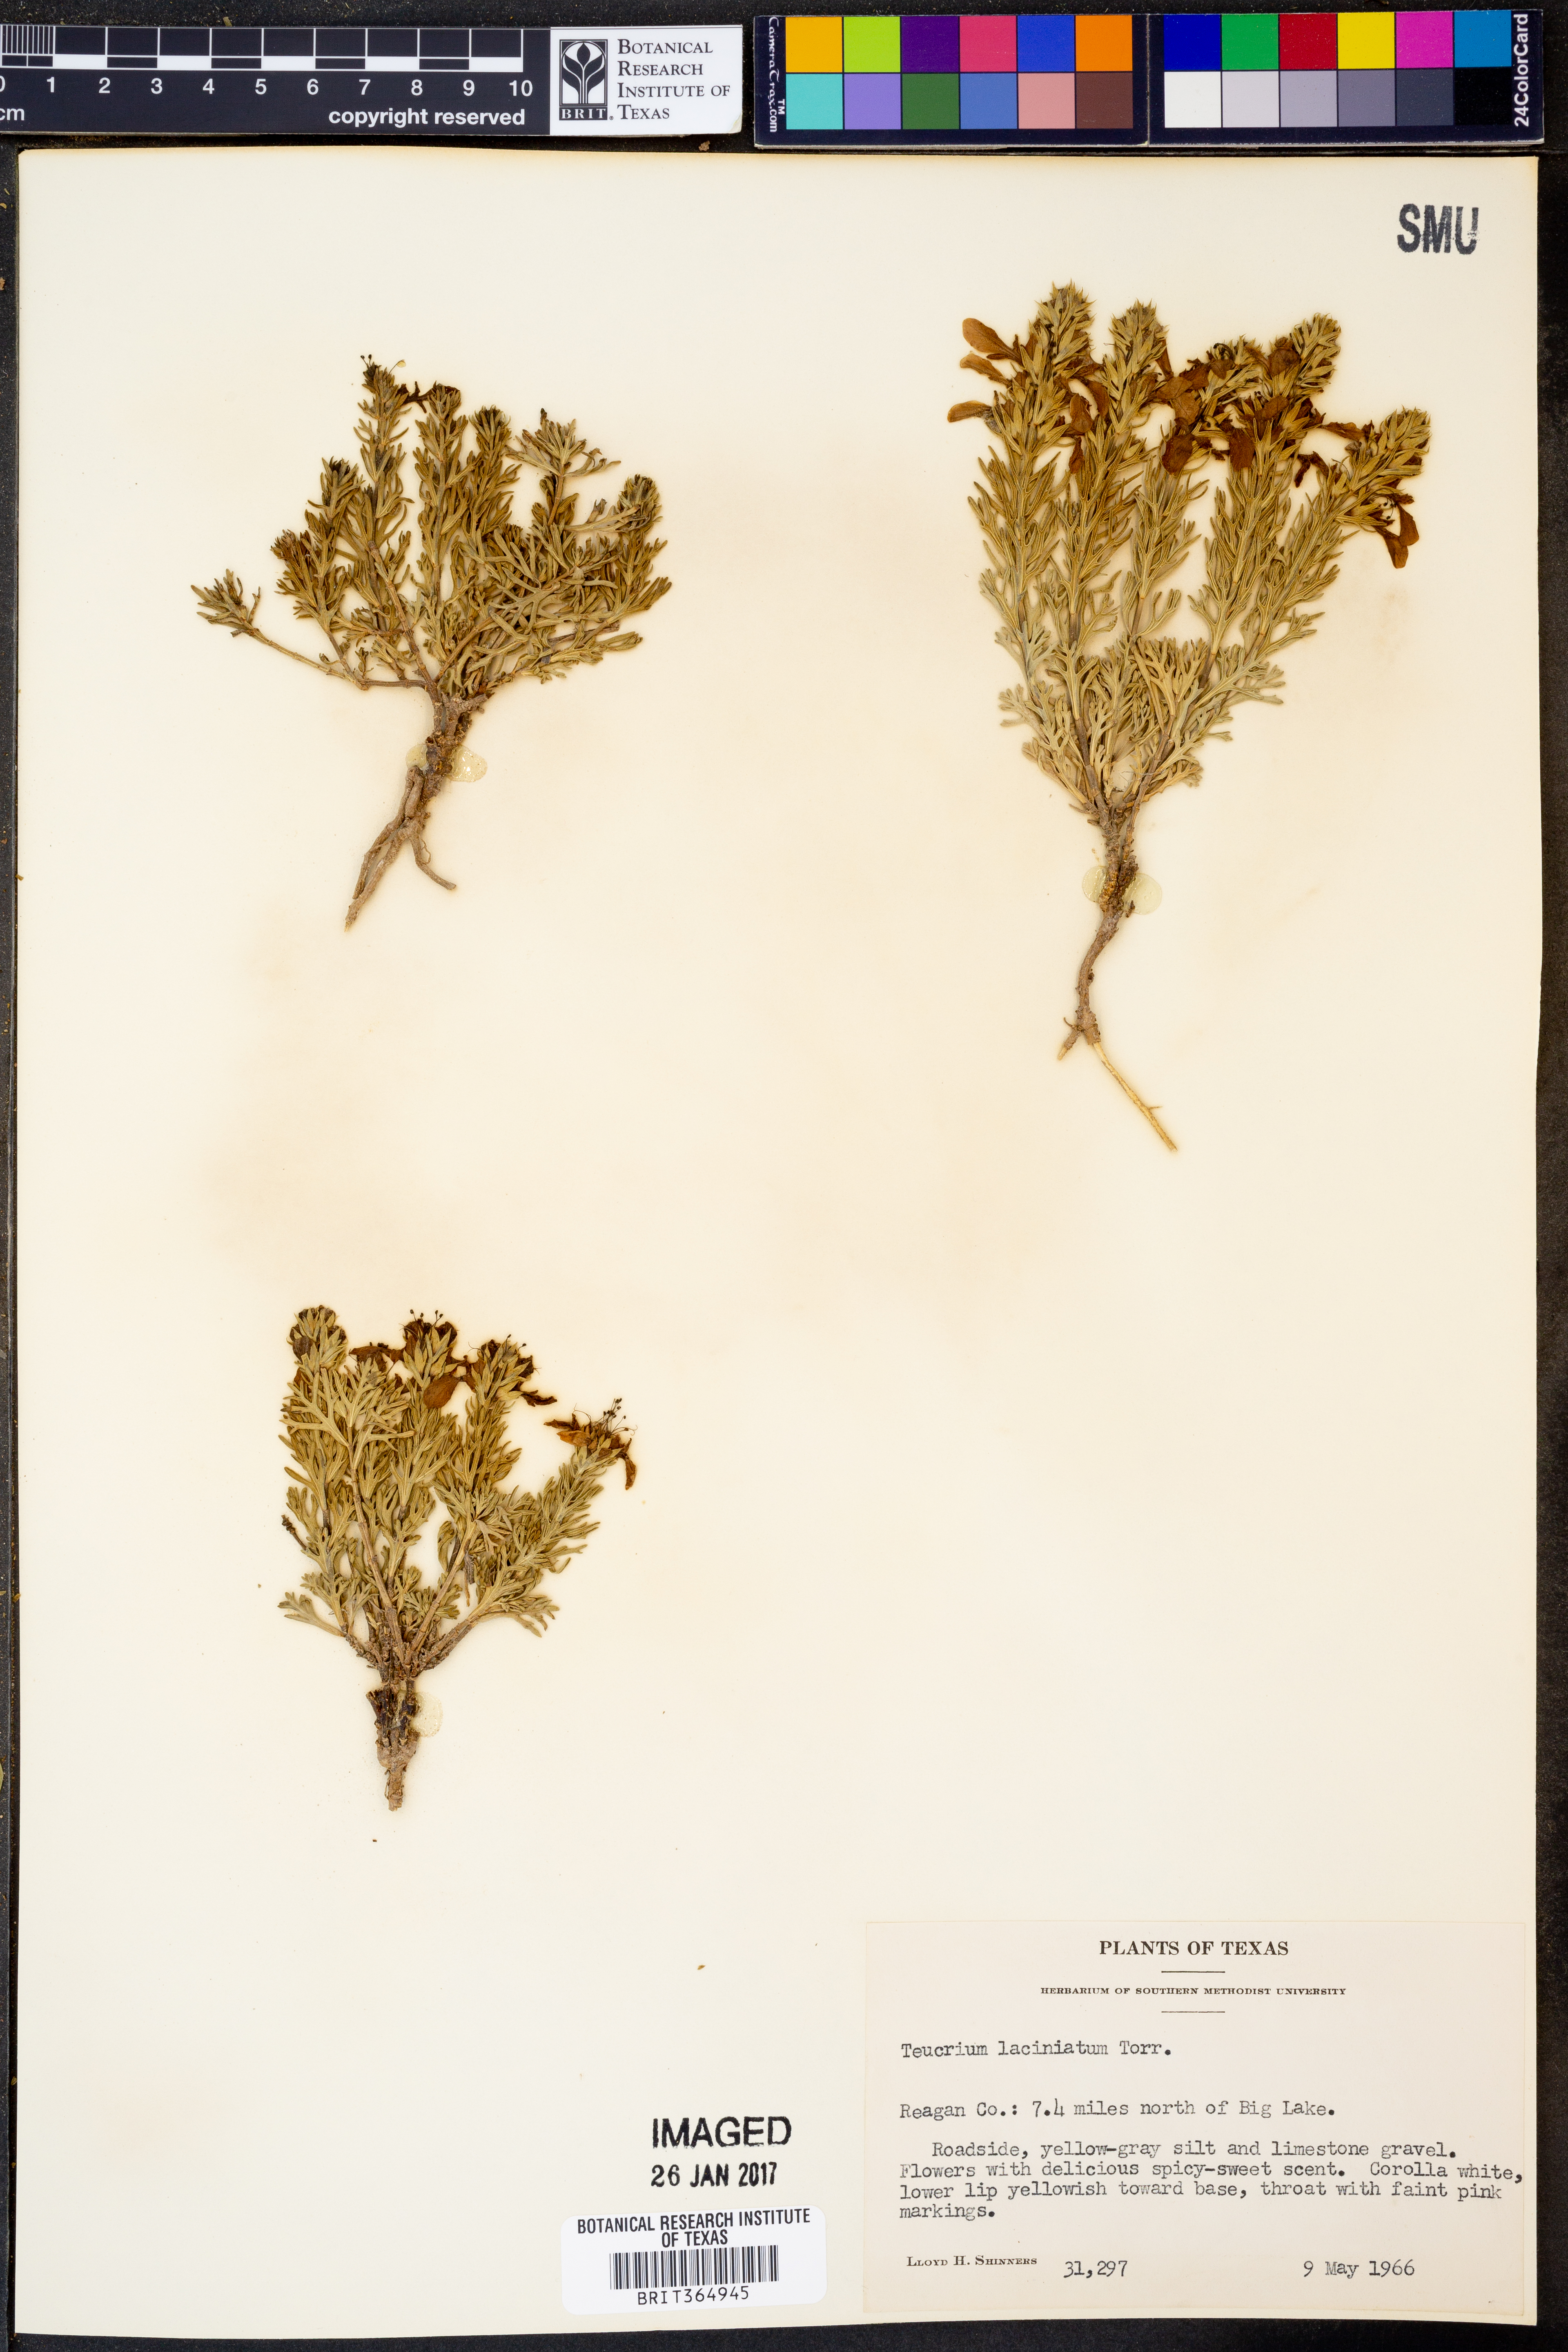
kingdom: Plantae
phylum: Tracheophyta
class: Magnoliopsida
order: Lamiales
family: Lamiaceae
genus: Teucrium
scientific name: Teucrium laciniatum
